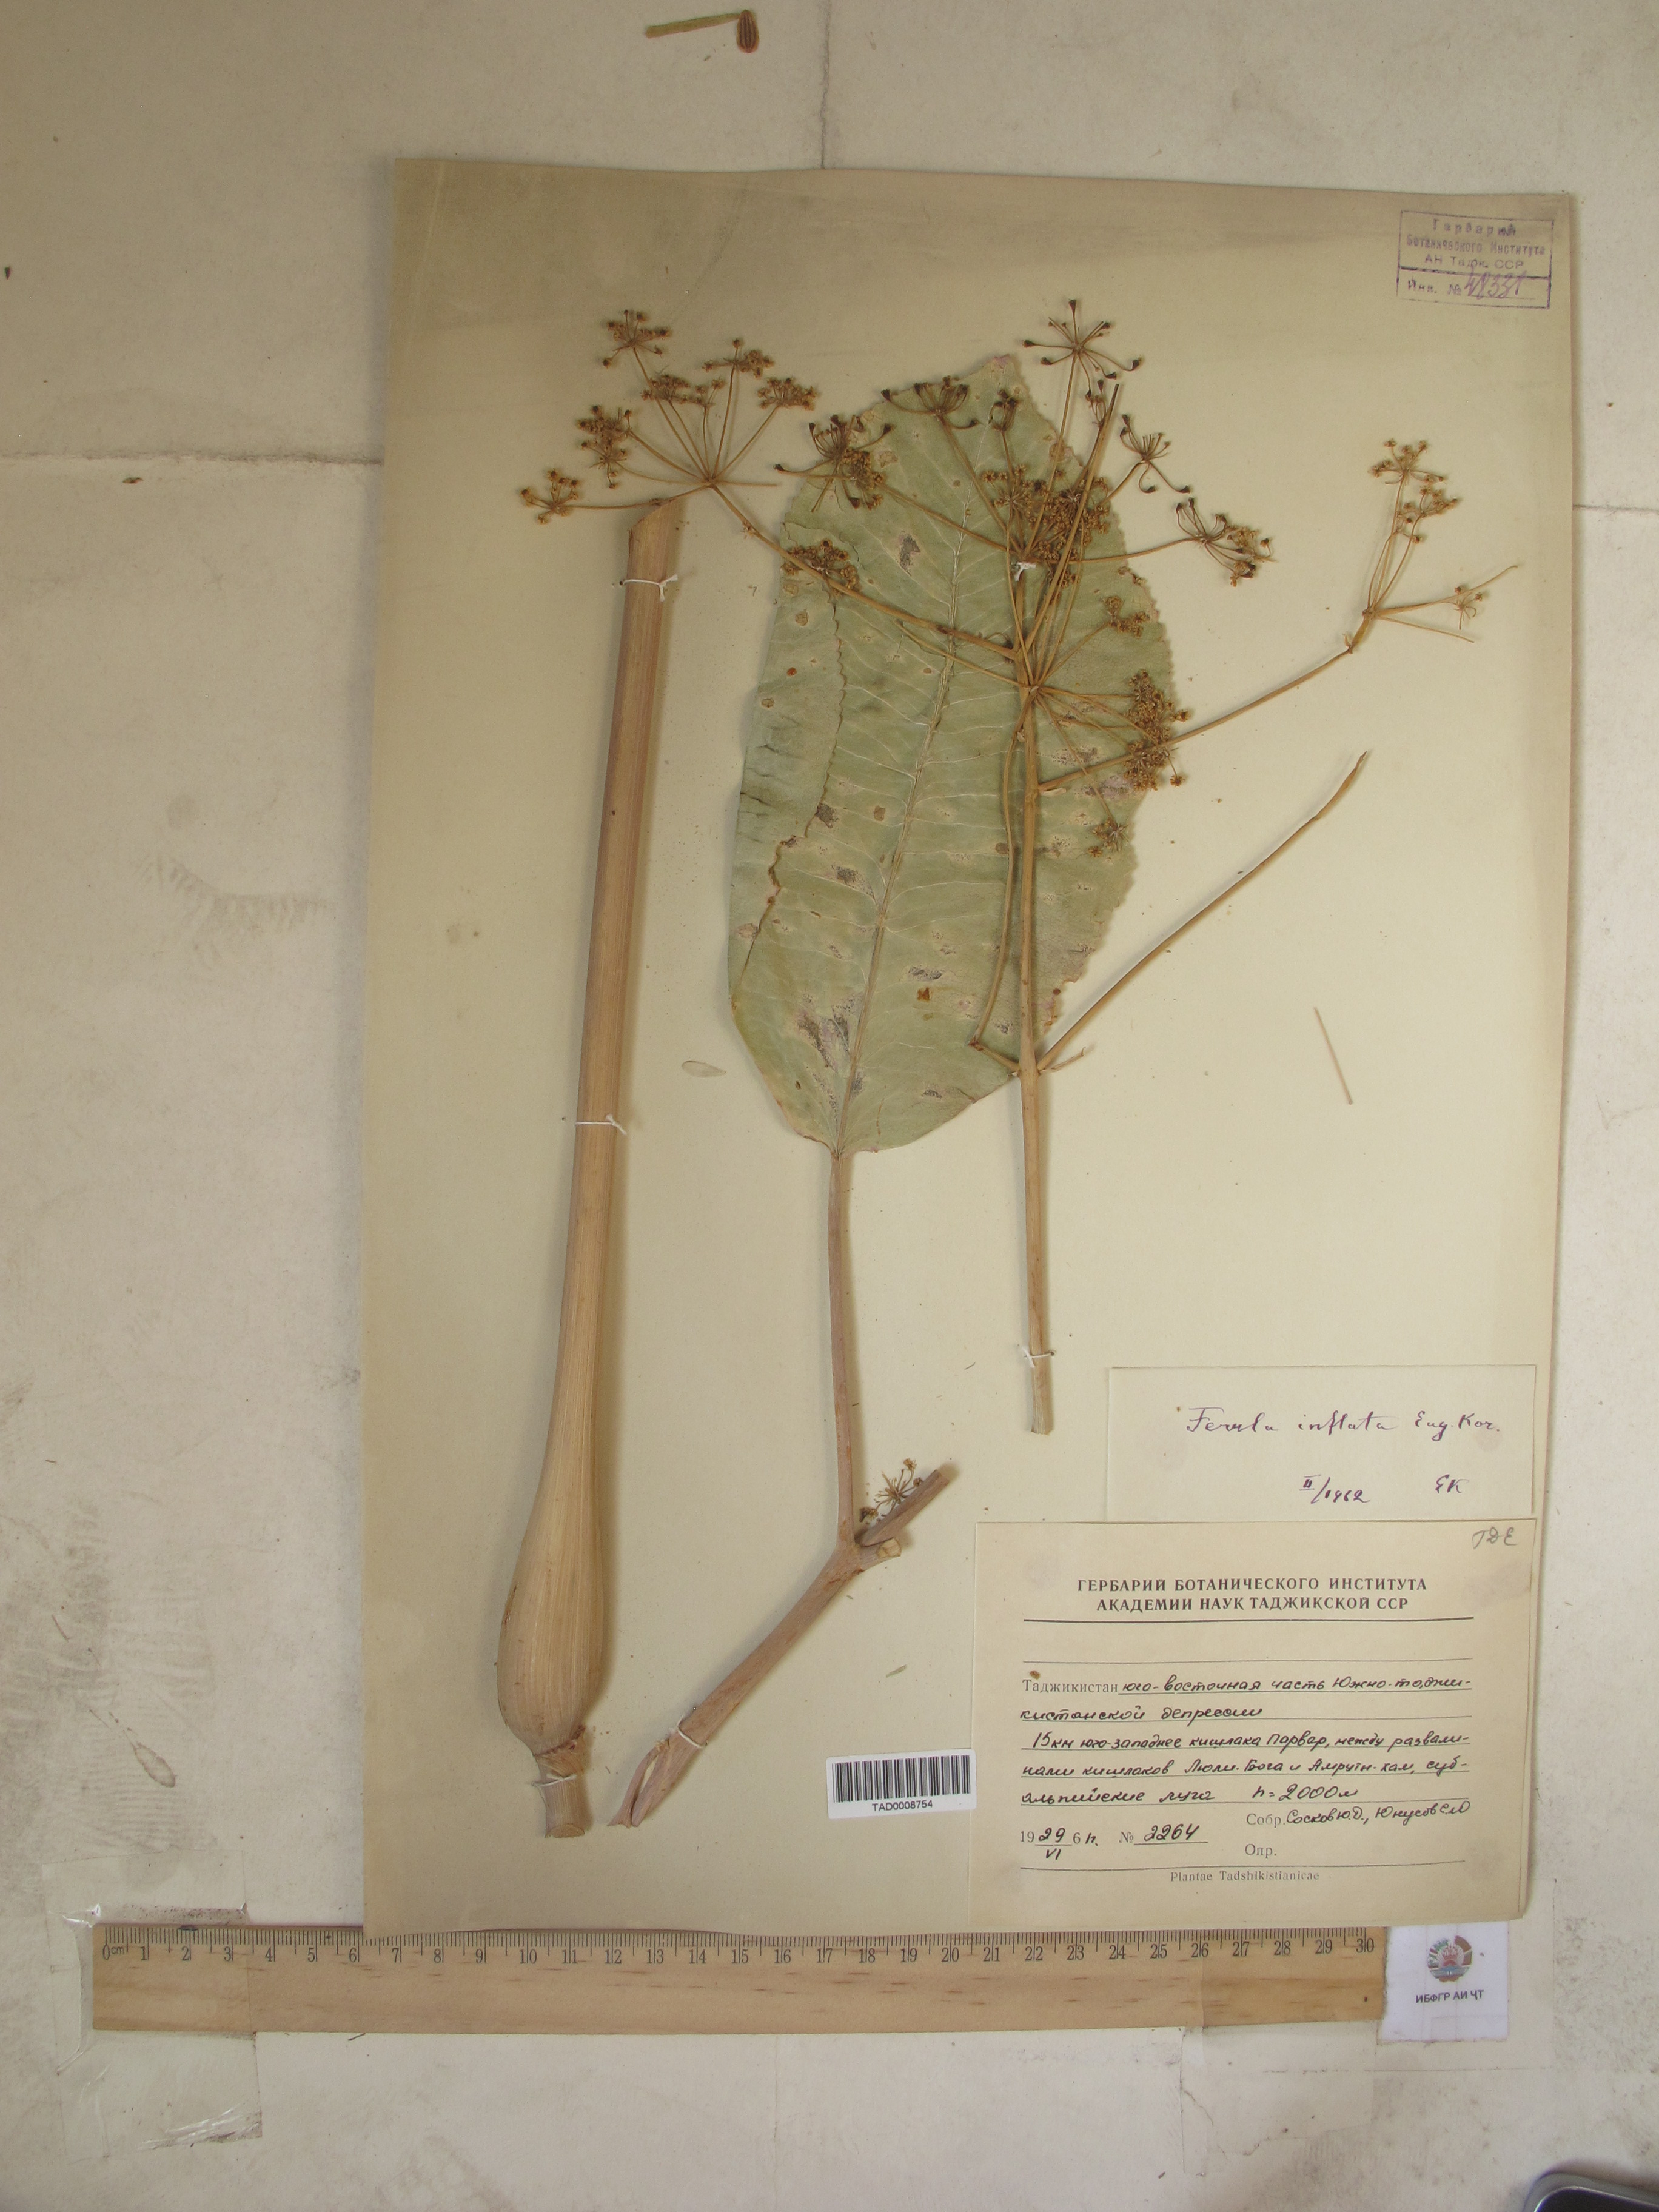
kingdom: Plantae
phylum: Tracheophyta
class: Magnoliopsida
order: Apiales
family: Apiaceae
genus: Ferula
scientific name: Ferula gigantea
